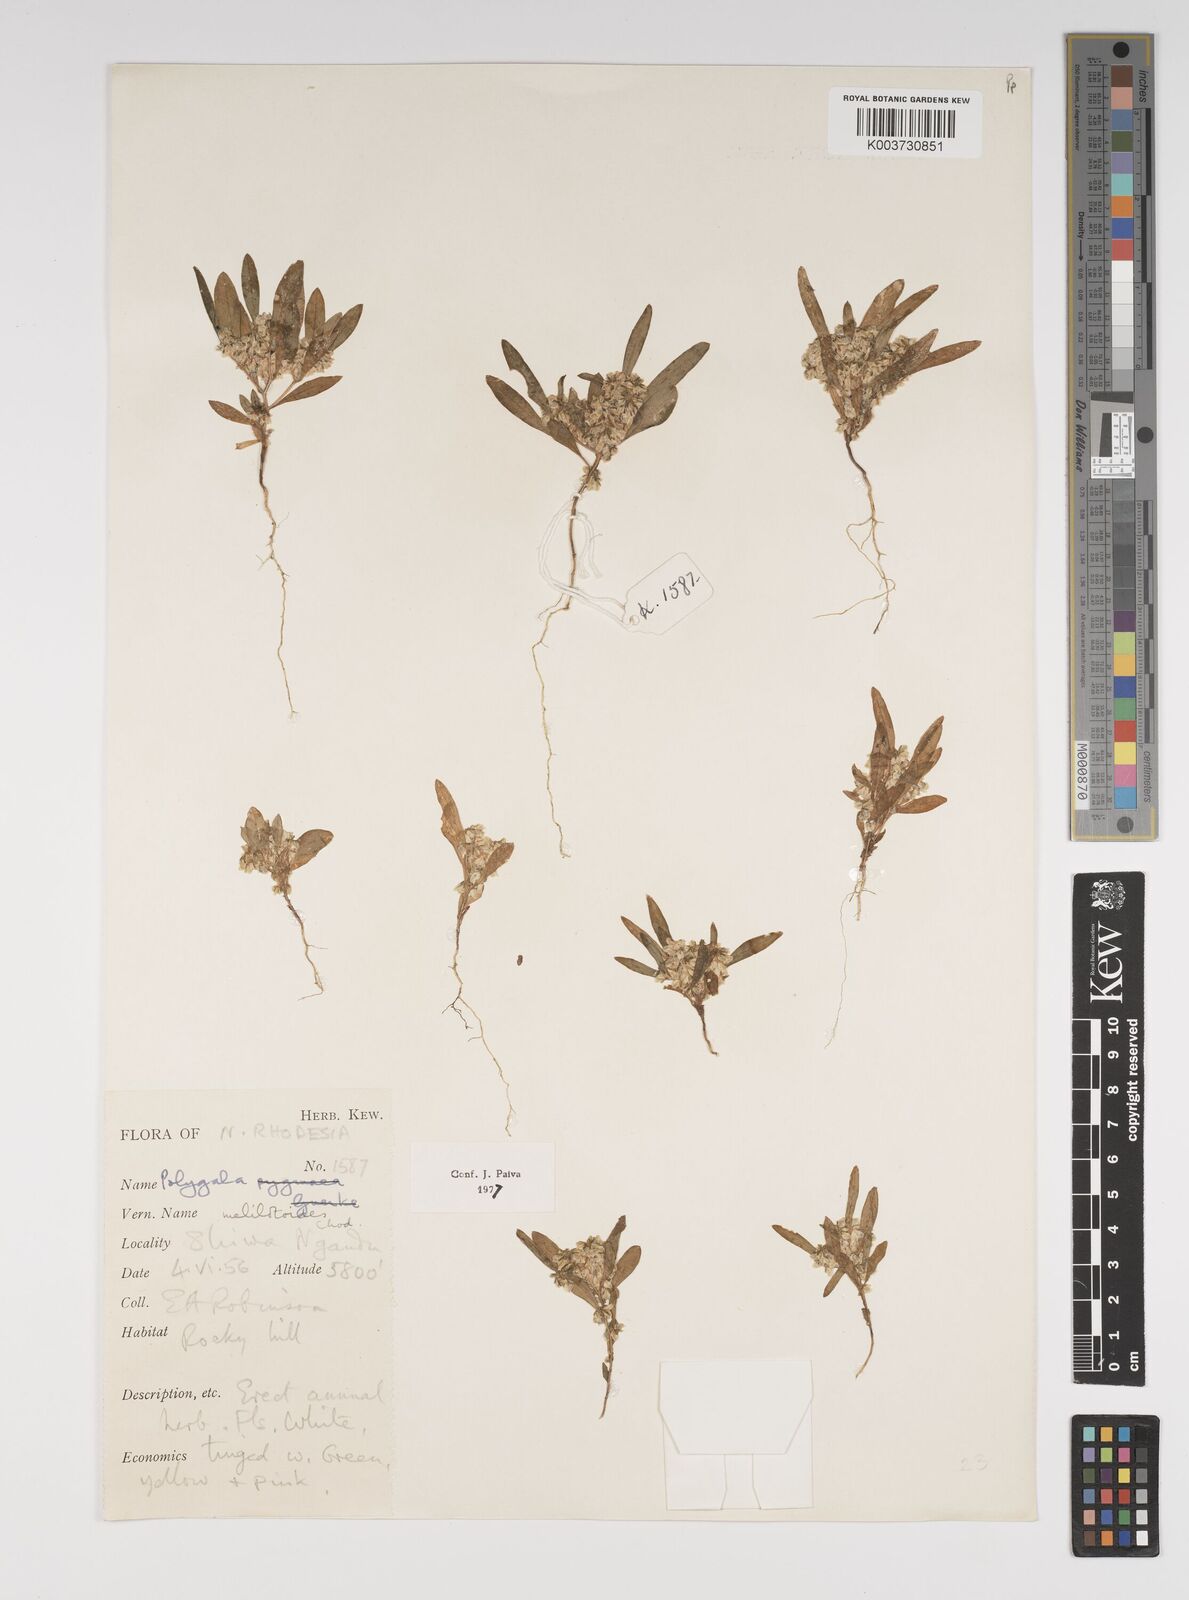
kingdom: Plantae
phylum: Tracheophyta
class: Magnoliopsida
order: Fabales
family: Polygalaceae
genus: Polygala
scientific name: Polygala melilotoides
